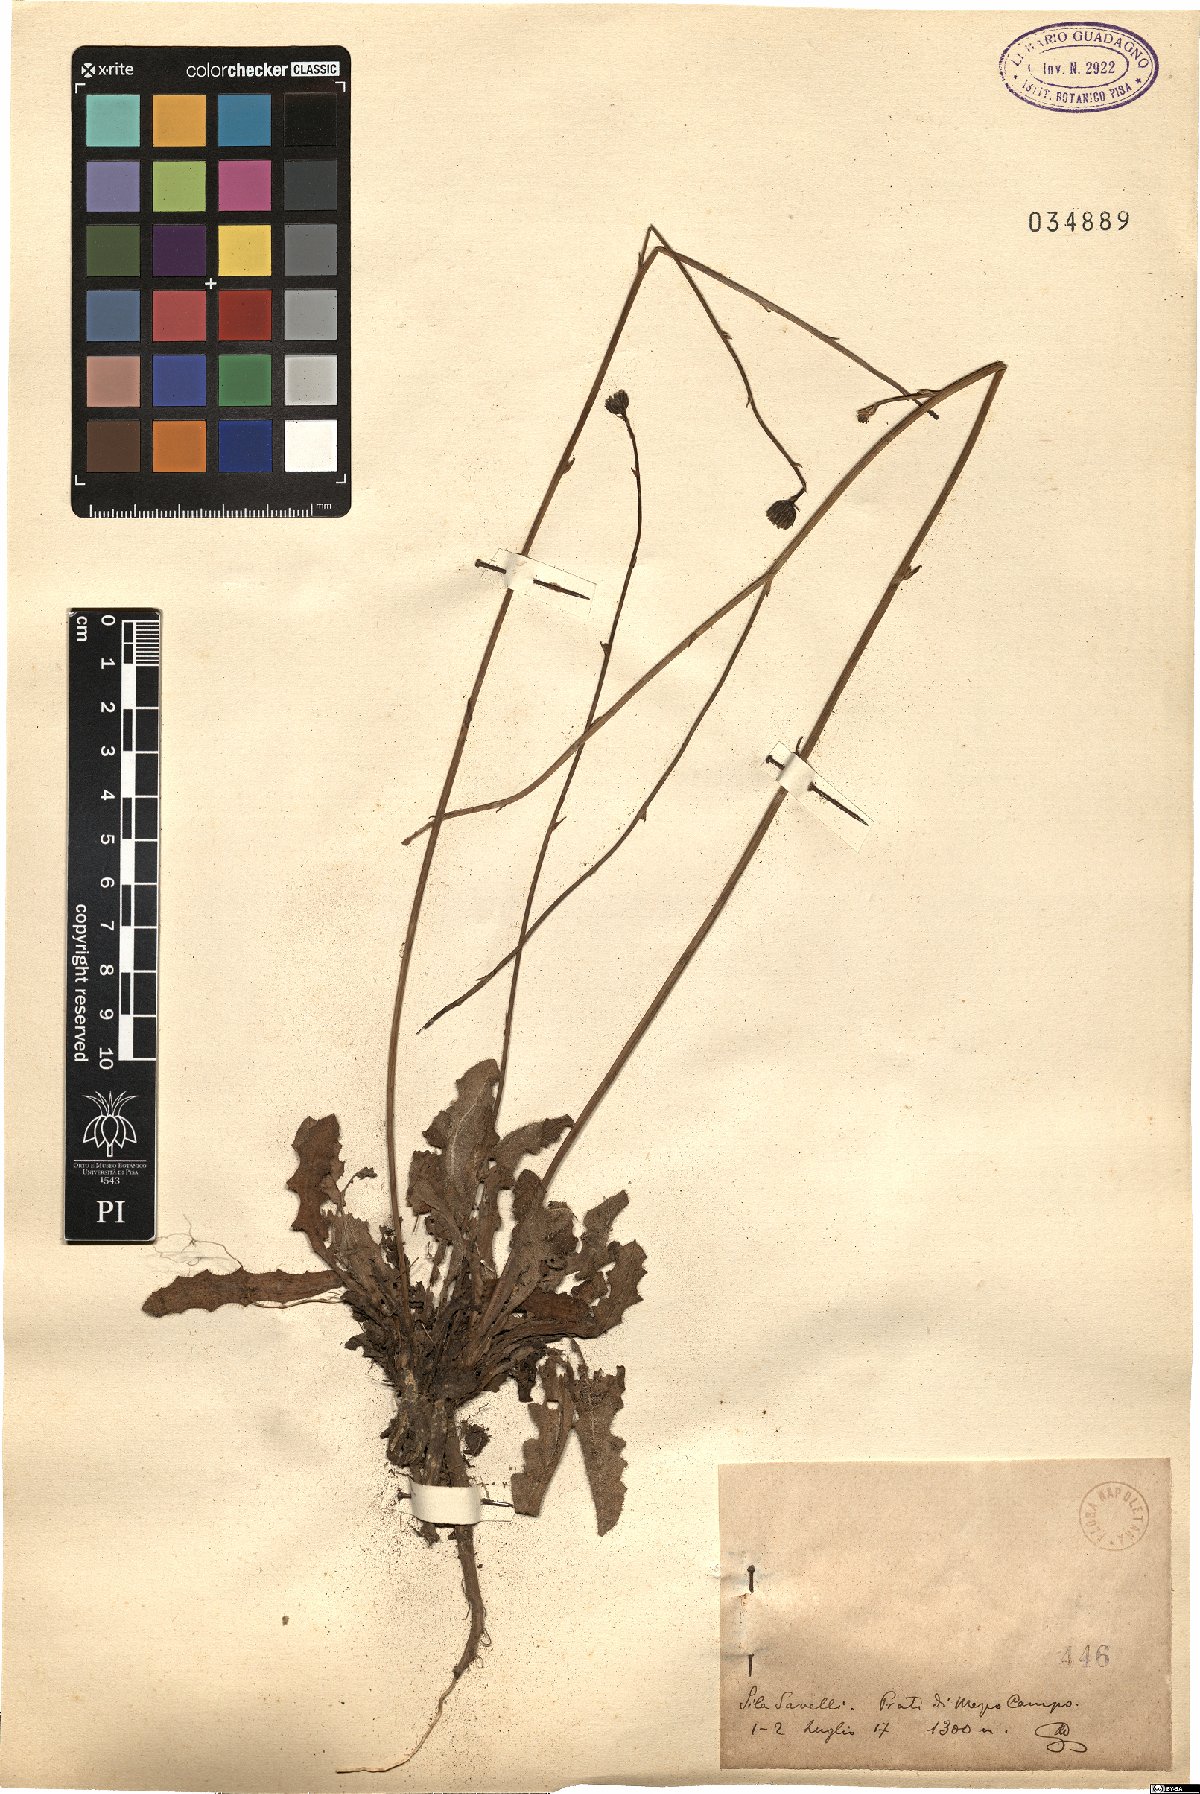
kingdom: Plantae
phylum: Tracheophyta
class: Magnoliopsida
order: Asterales
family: Asteraceae
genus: Hypochaeris
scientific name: Hypochaeris
